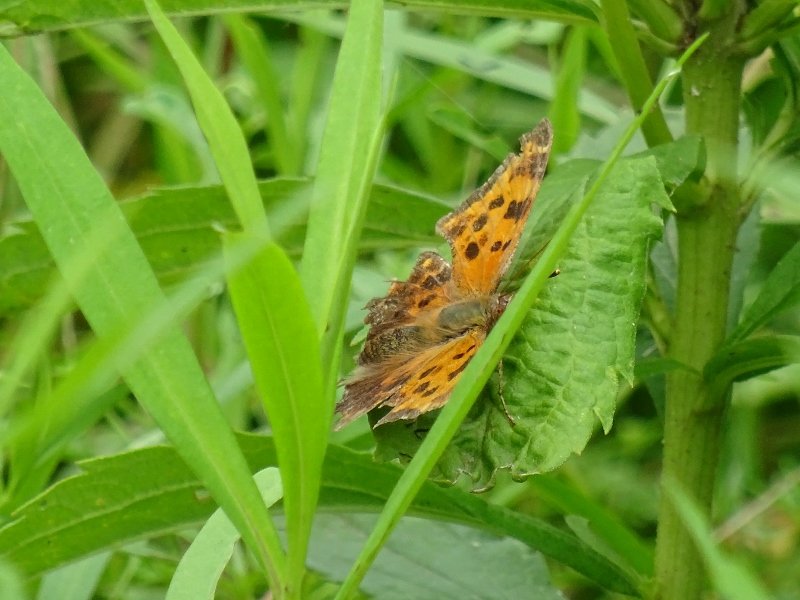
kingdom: Animalia
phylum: Arthropoda
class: Insecta
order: Lepidoptera
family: Nymphalidae
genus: Polygonia
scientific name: Polygonia comma
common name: Eastern Comma
